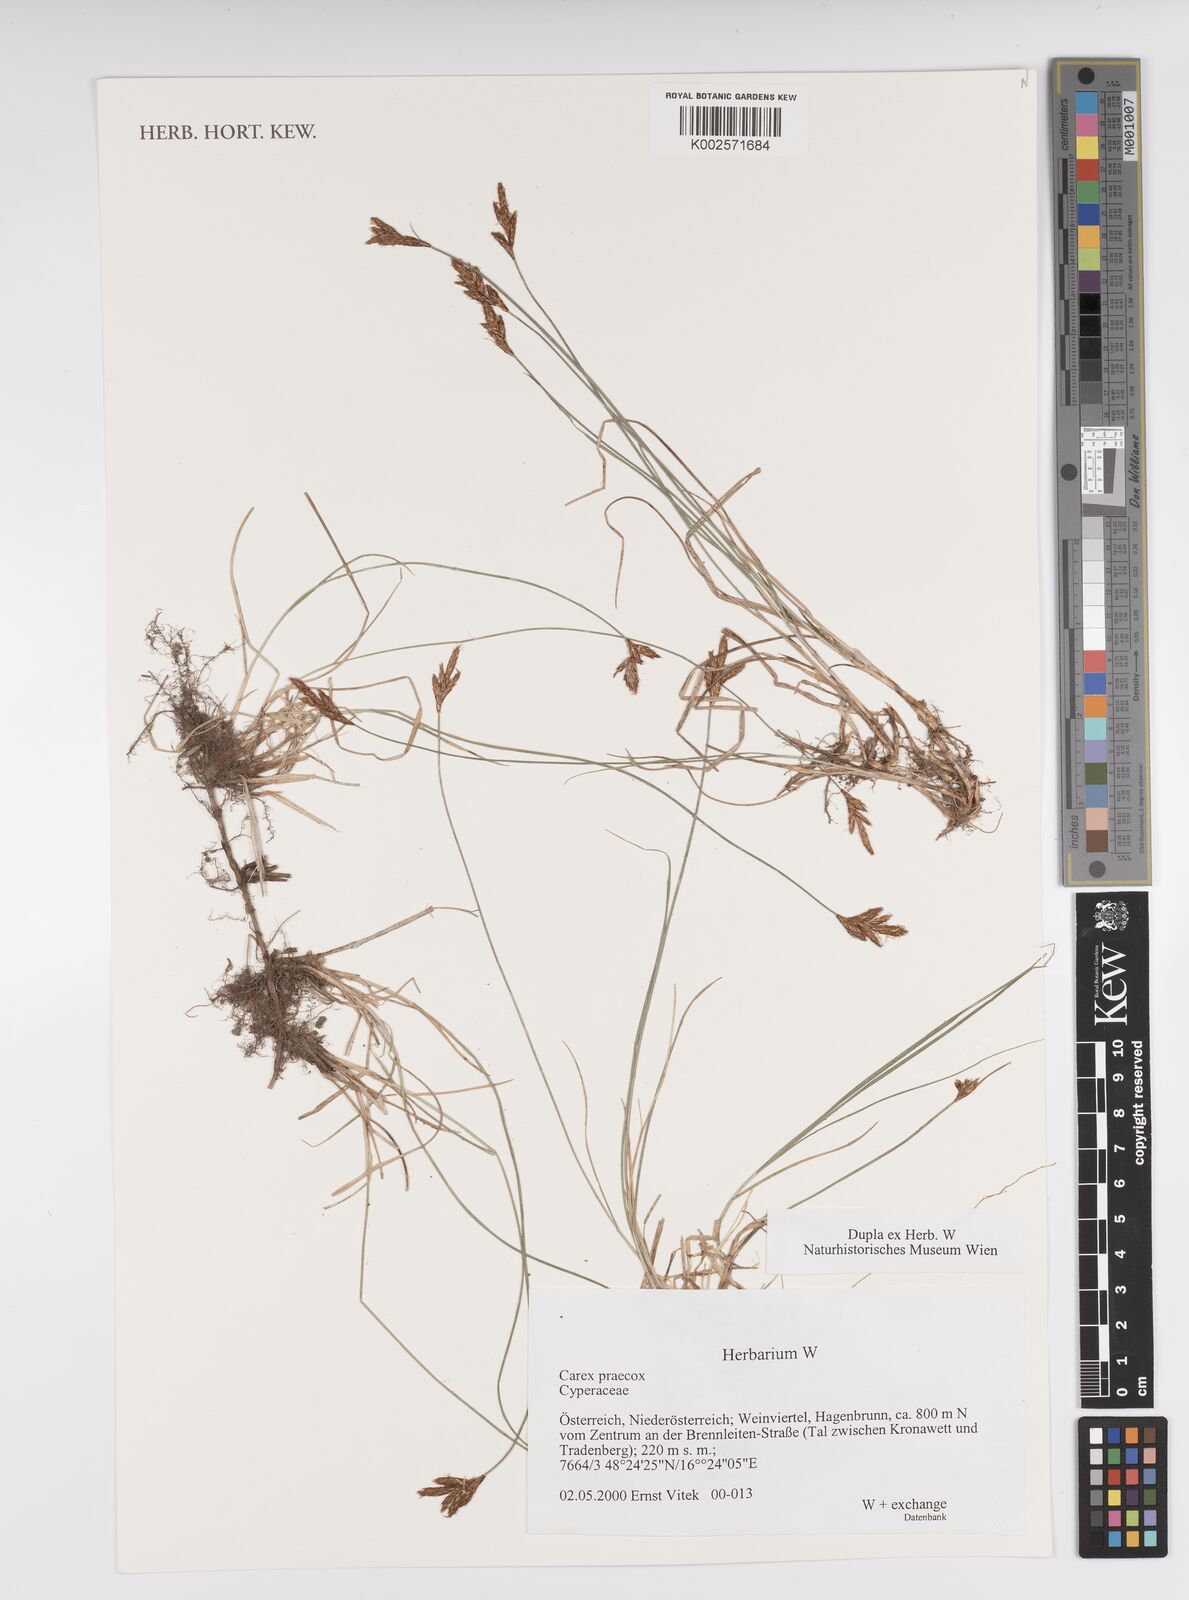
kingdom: Plantae
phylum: Tracheophyta
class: Liliopsida
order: Poales
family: Cyperaceae
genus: Carex
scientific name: Carex caryophyllea
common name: Spring sedge
